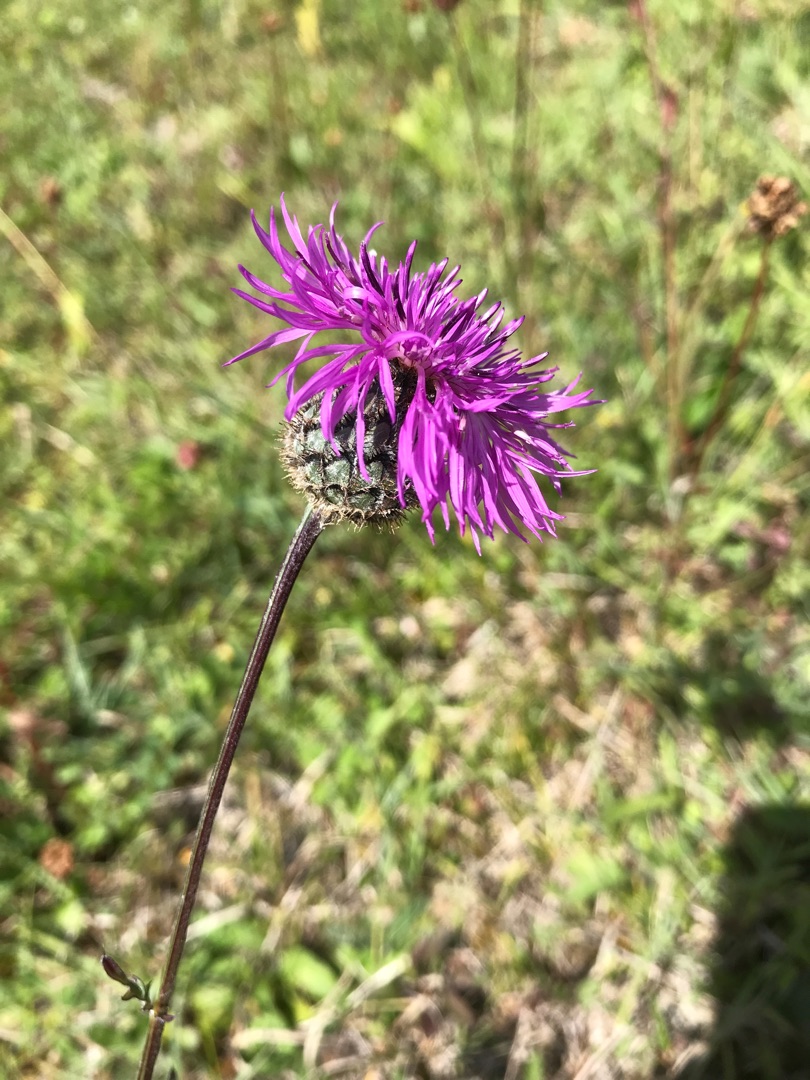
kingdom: Plantae
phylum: Tracheophyta
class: Magnoliopsida
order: Asterales
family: Asteraceae
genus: Centaurea
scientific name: Centaurea scabiosa
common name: Stor knopurt
